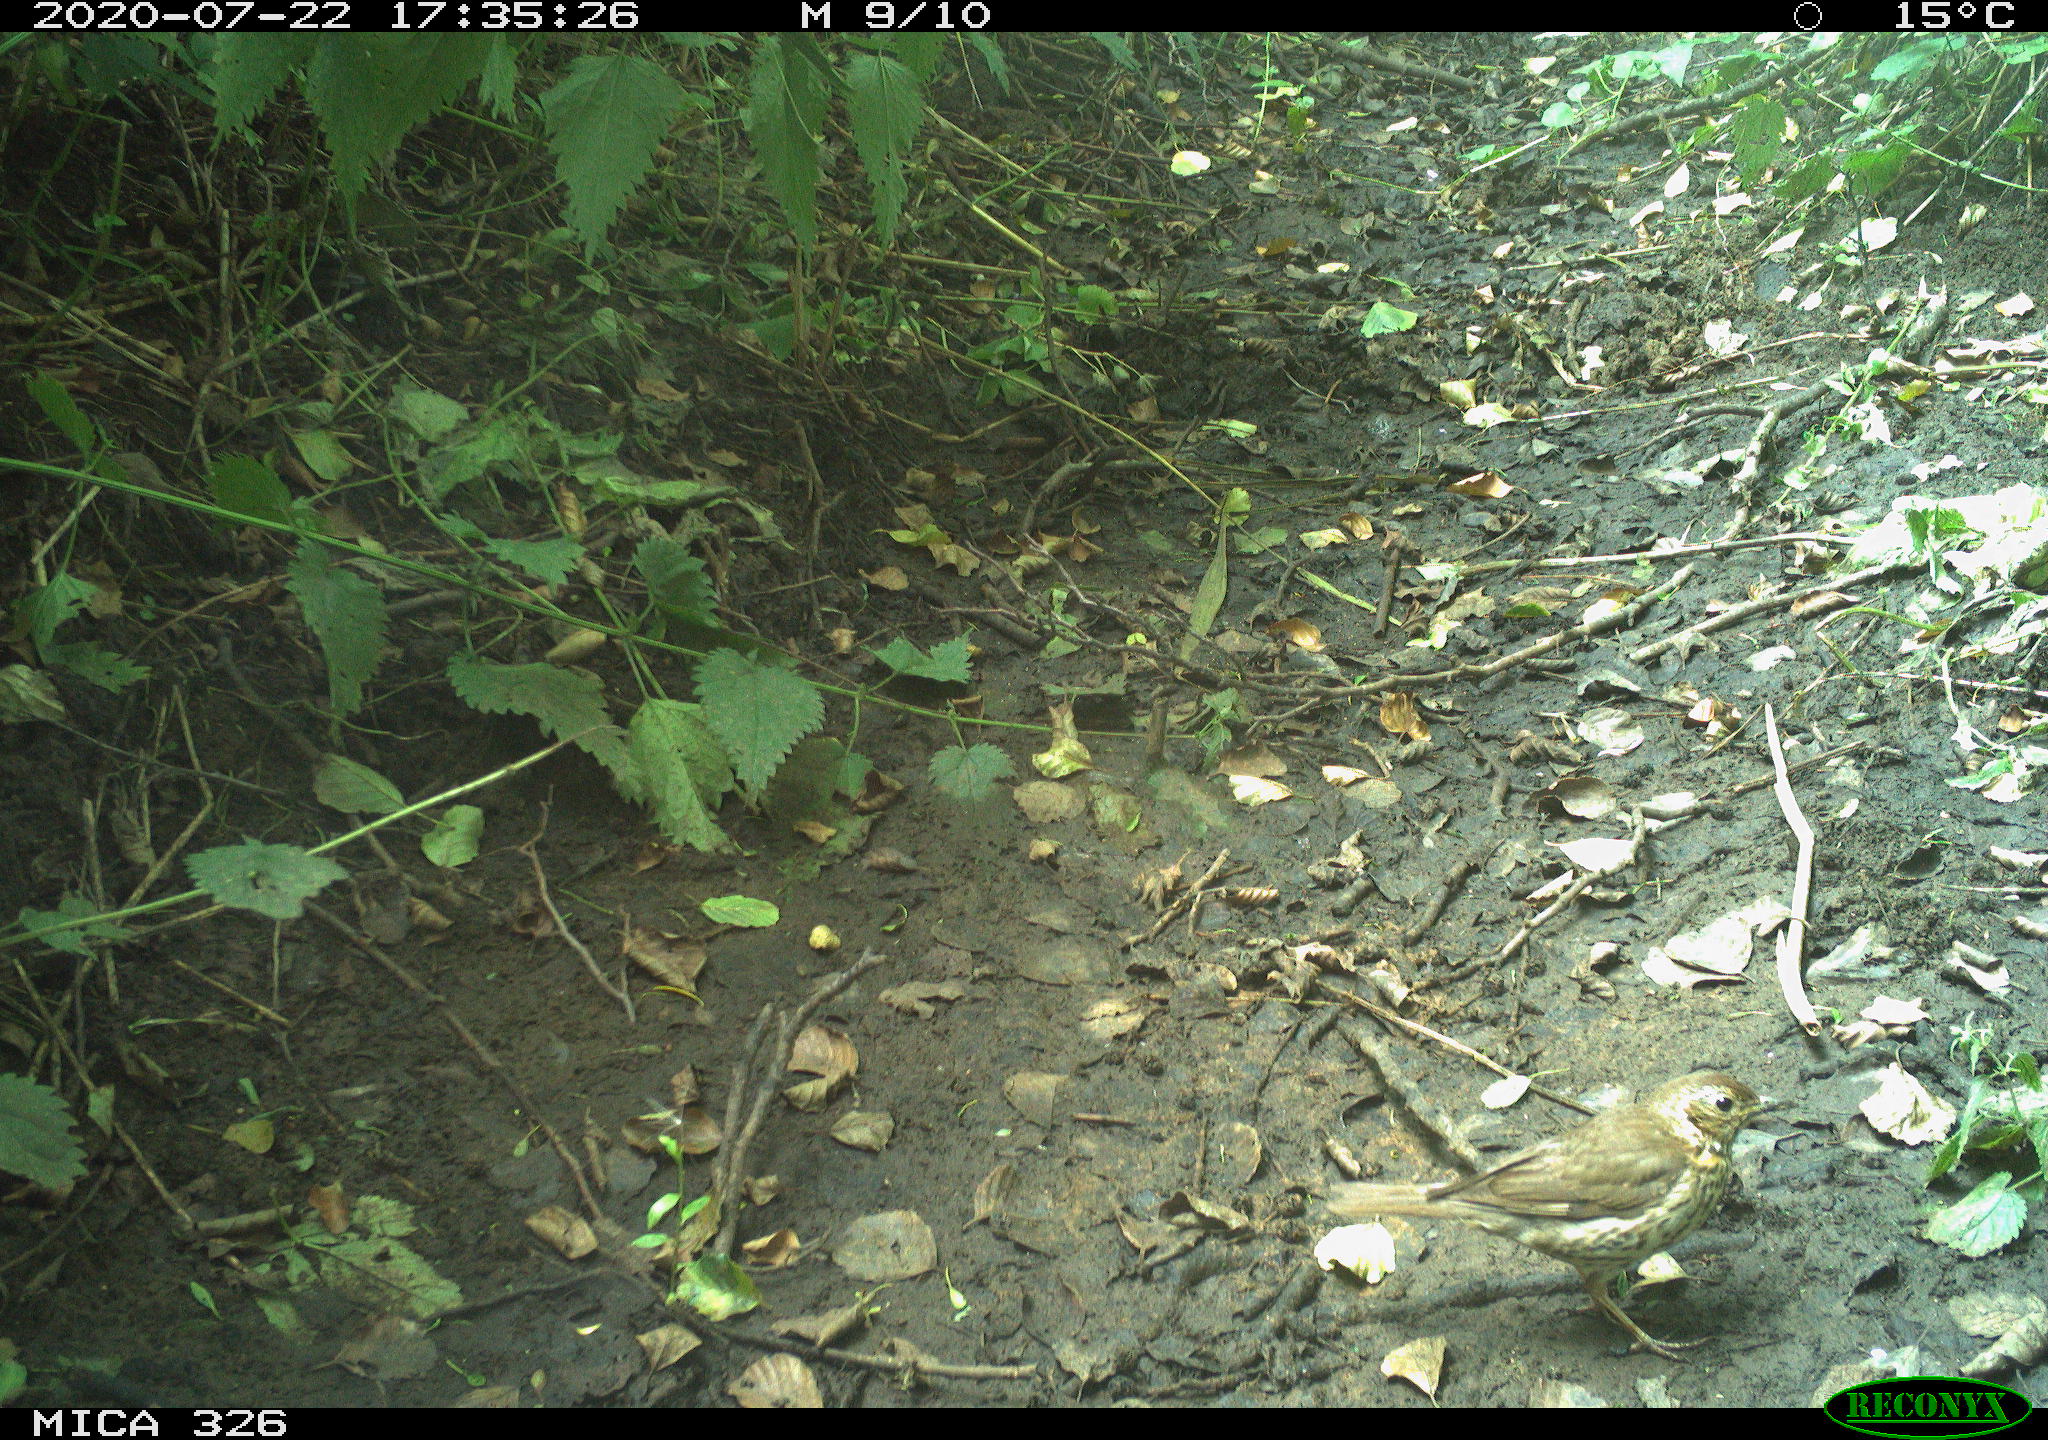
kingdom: Animalia
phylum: Chordata
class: Aves
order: Passeriformes
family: Turdidae
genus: Turdus
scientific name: Turdus philomelos
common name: Song thrush
